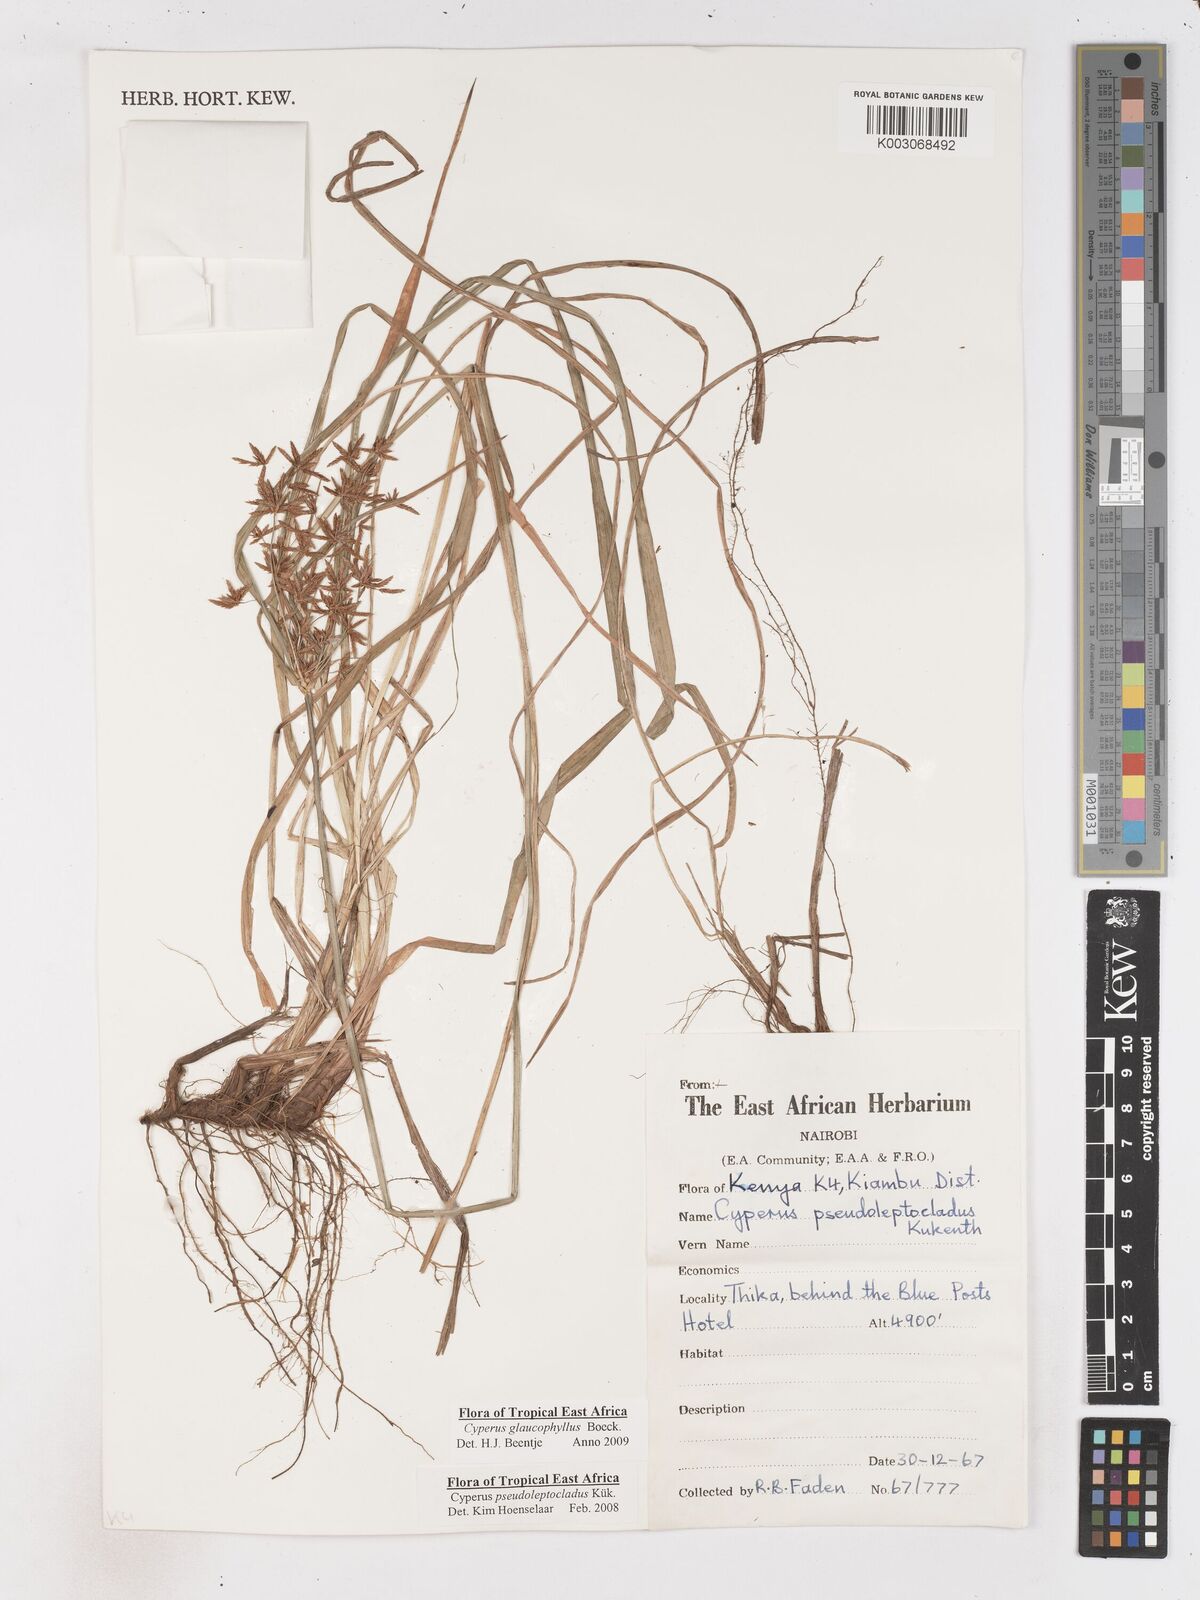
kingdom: Plantae
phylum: Tracheophyta
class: Liliopsida
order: Poales
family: Cyperaceae
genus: Cyperus
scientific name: Cyperus glaucophyllus
